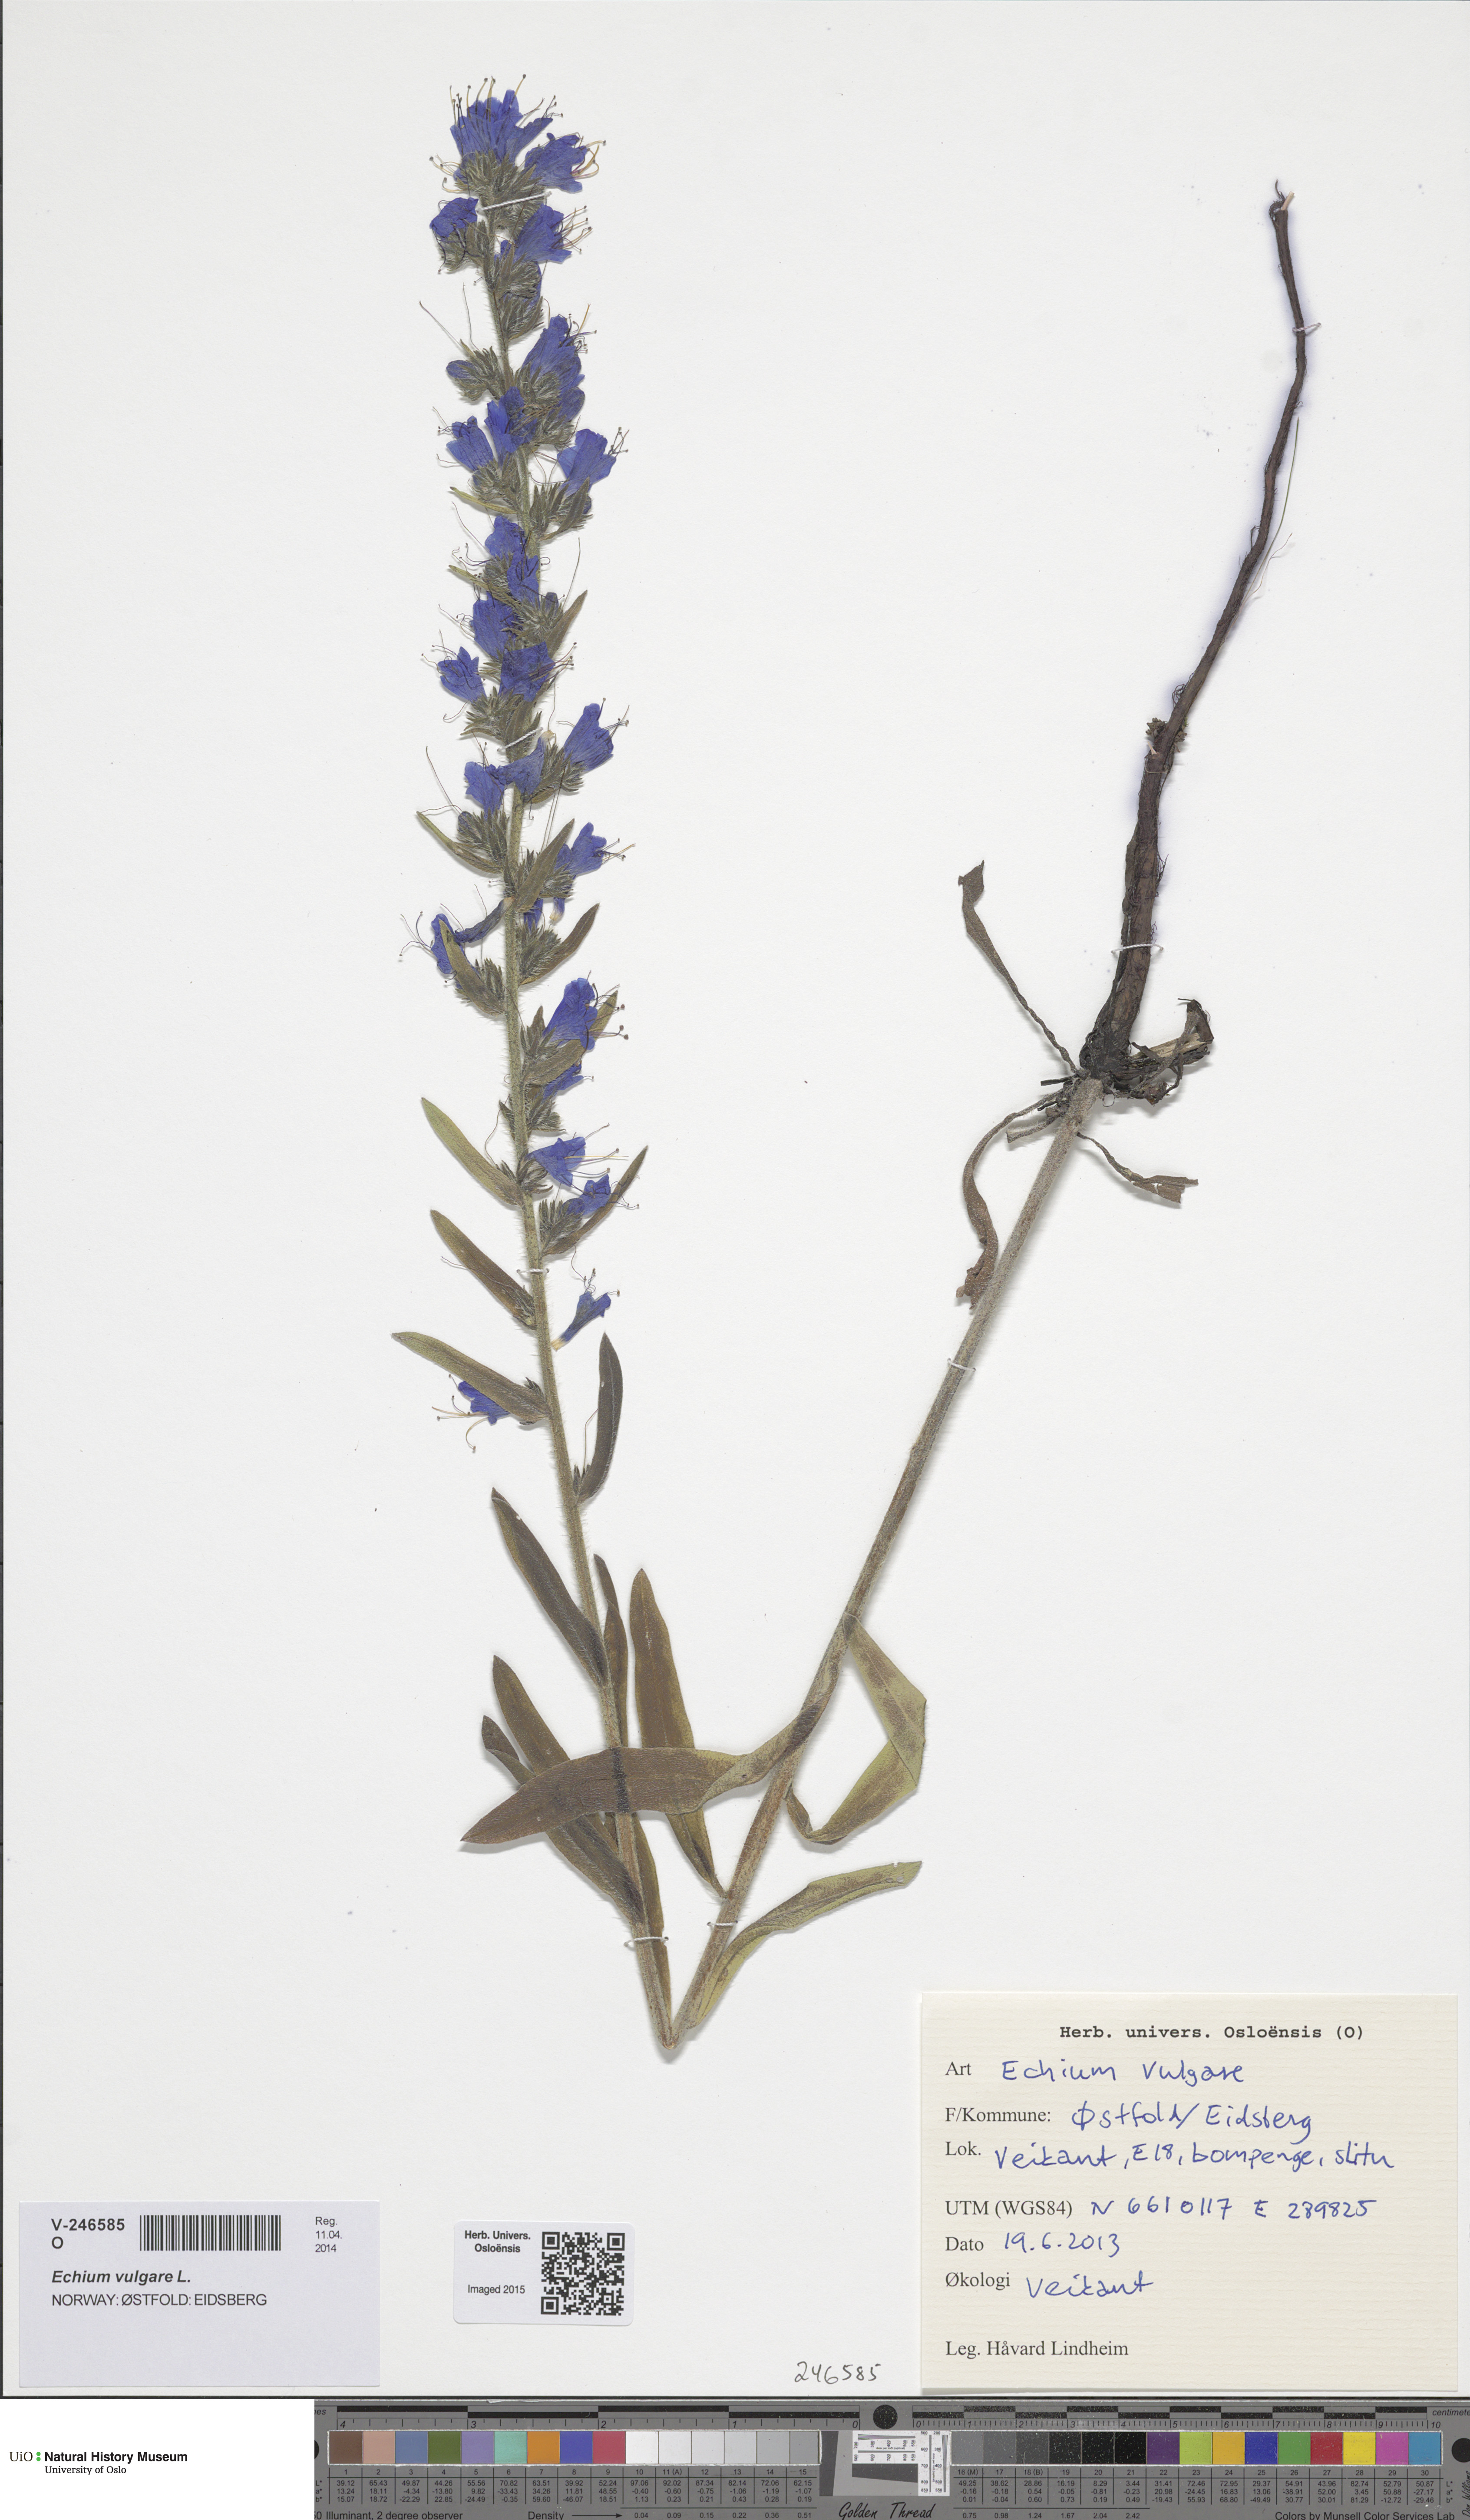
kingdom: Plantae
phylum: Tracheophyta
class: Magnoliopsida
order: Boraginales
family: Boraginaceae
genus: Echium
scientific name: Echium vulgare
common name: Common viper's bugloss
